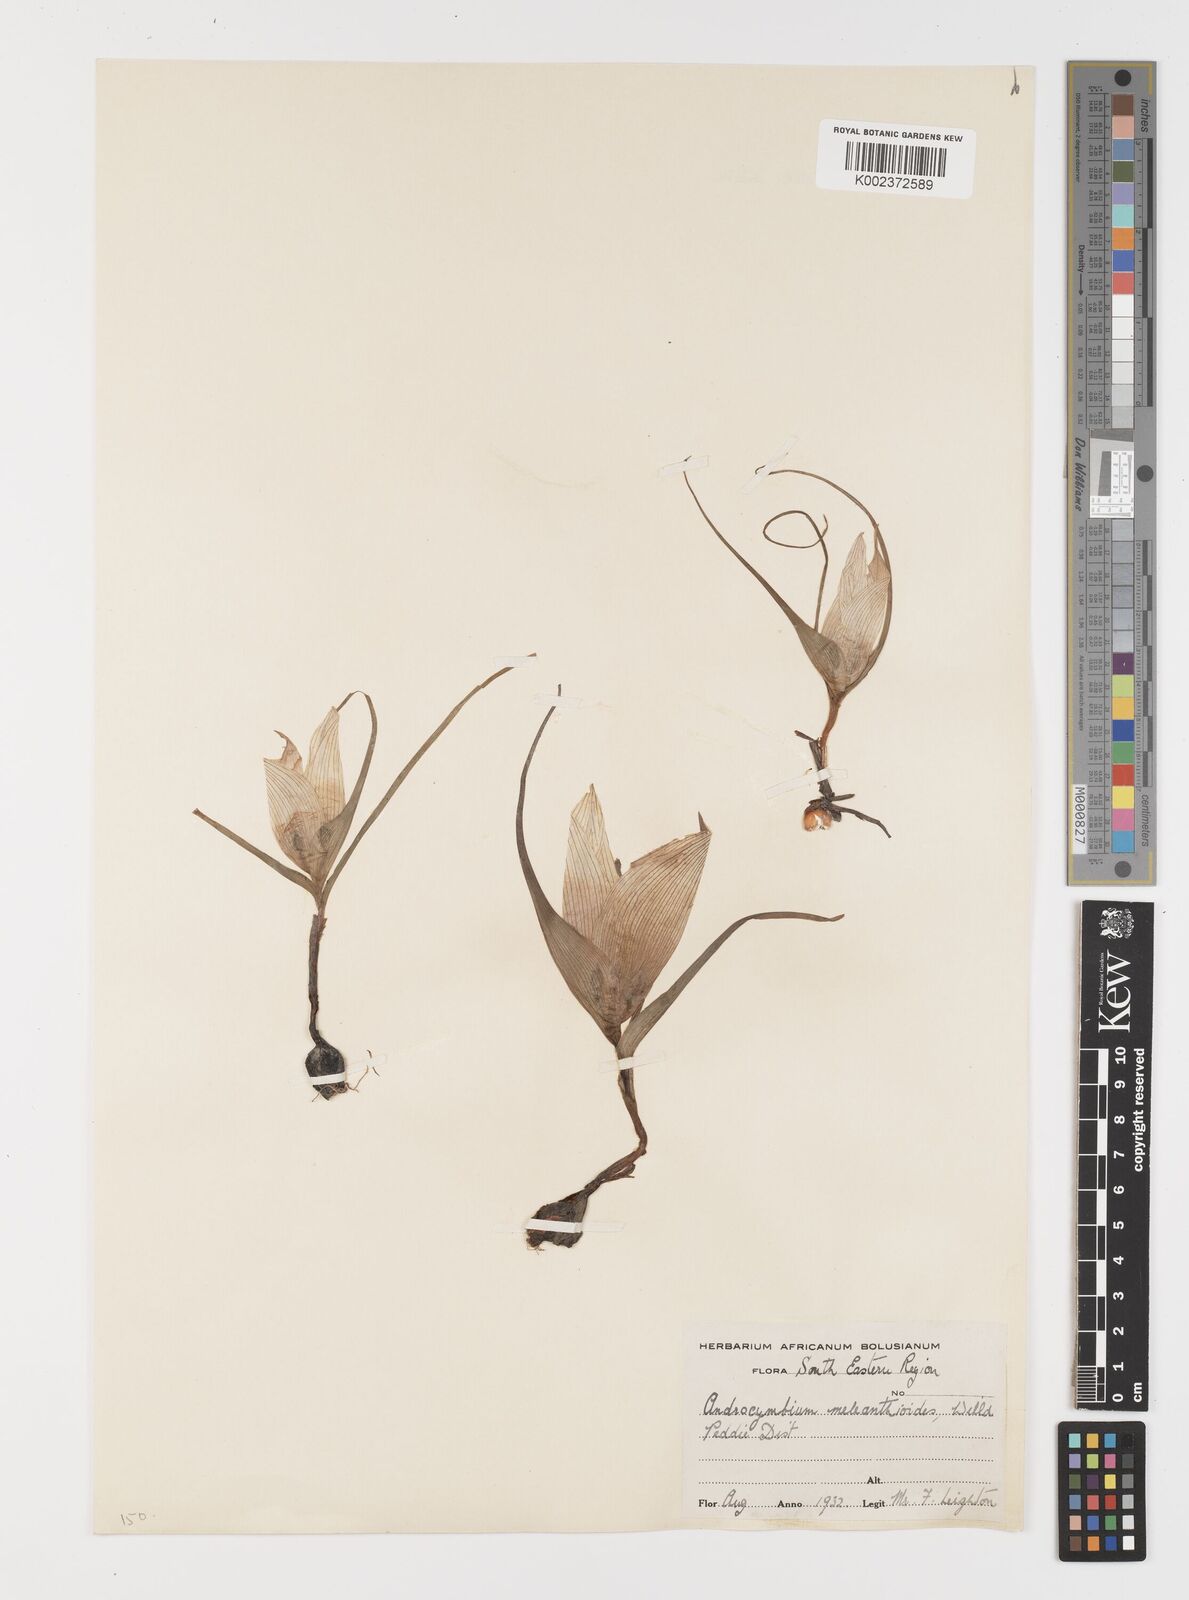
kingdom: Plantae
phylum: Tracheophyta
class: Liliopsida
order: Liliales
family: Colchicaceae
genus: Colchicum
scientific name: Colchicum melanthioides
